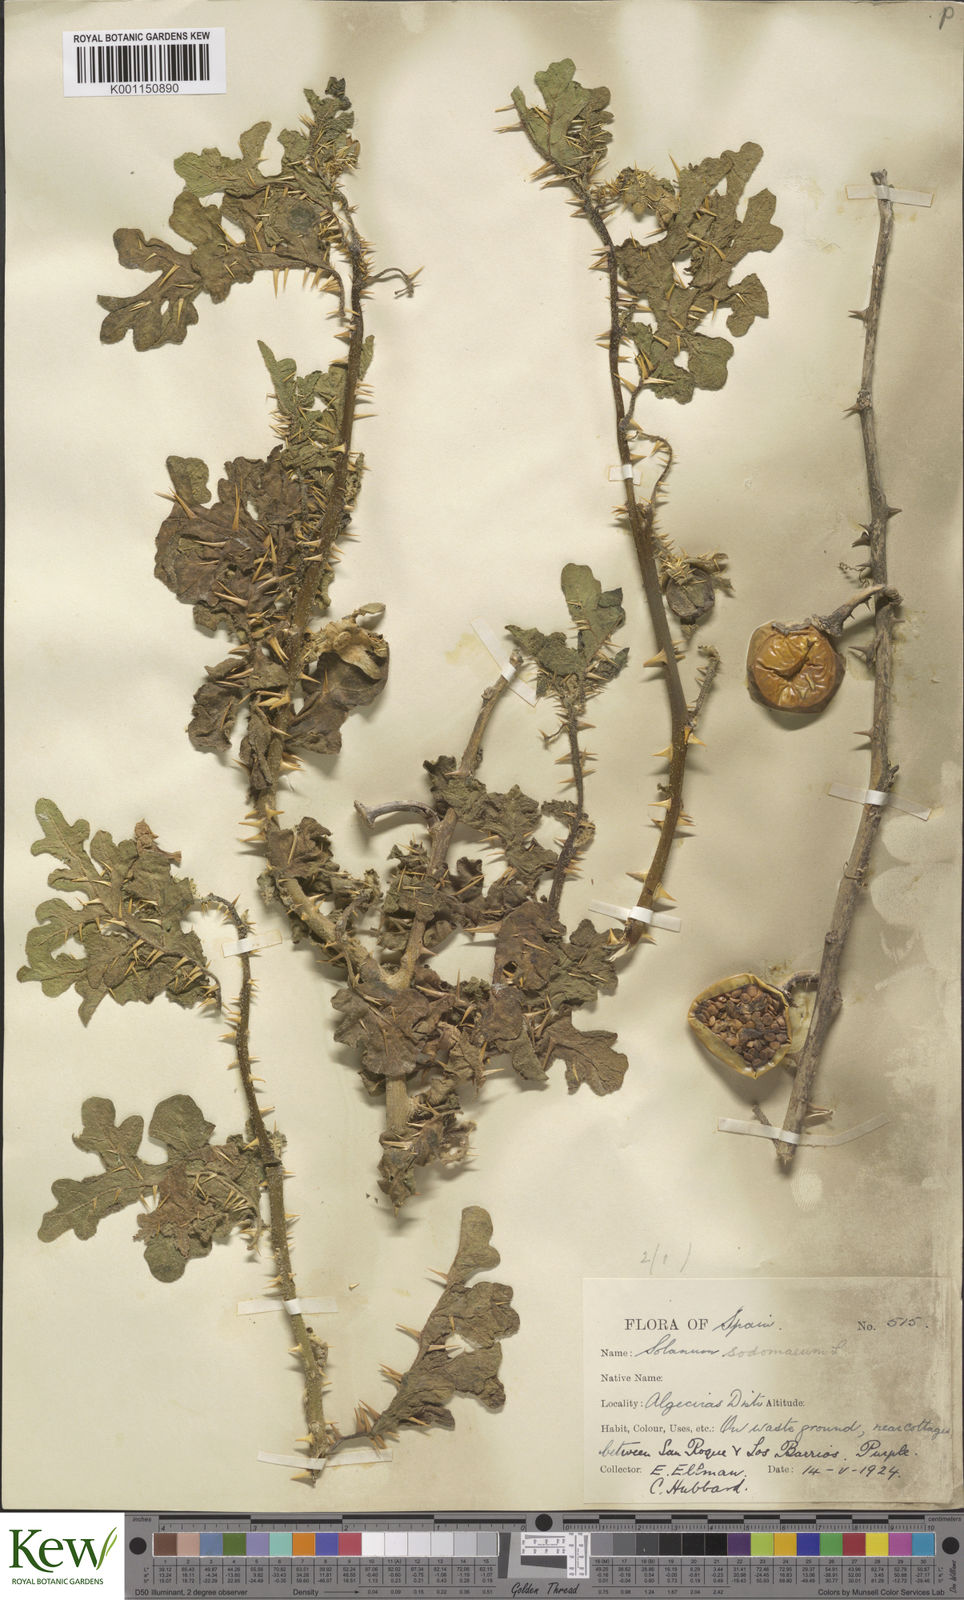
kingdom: Plantae
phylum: Tracheophyta
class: Magnoliopsida
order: Solanales
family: Solanaceae
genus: Solanum
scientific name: Solanum anguivi
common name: Forest bitterberry
